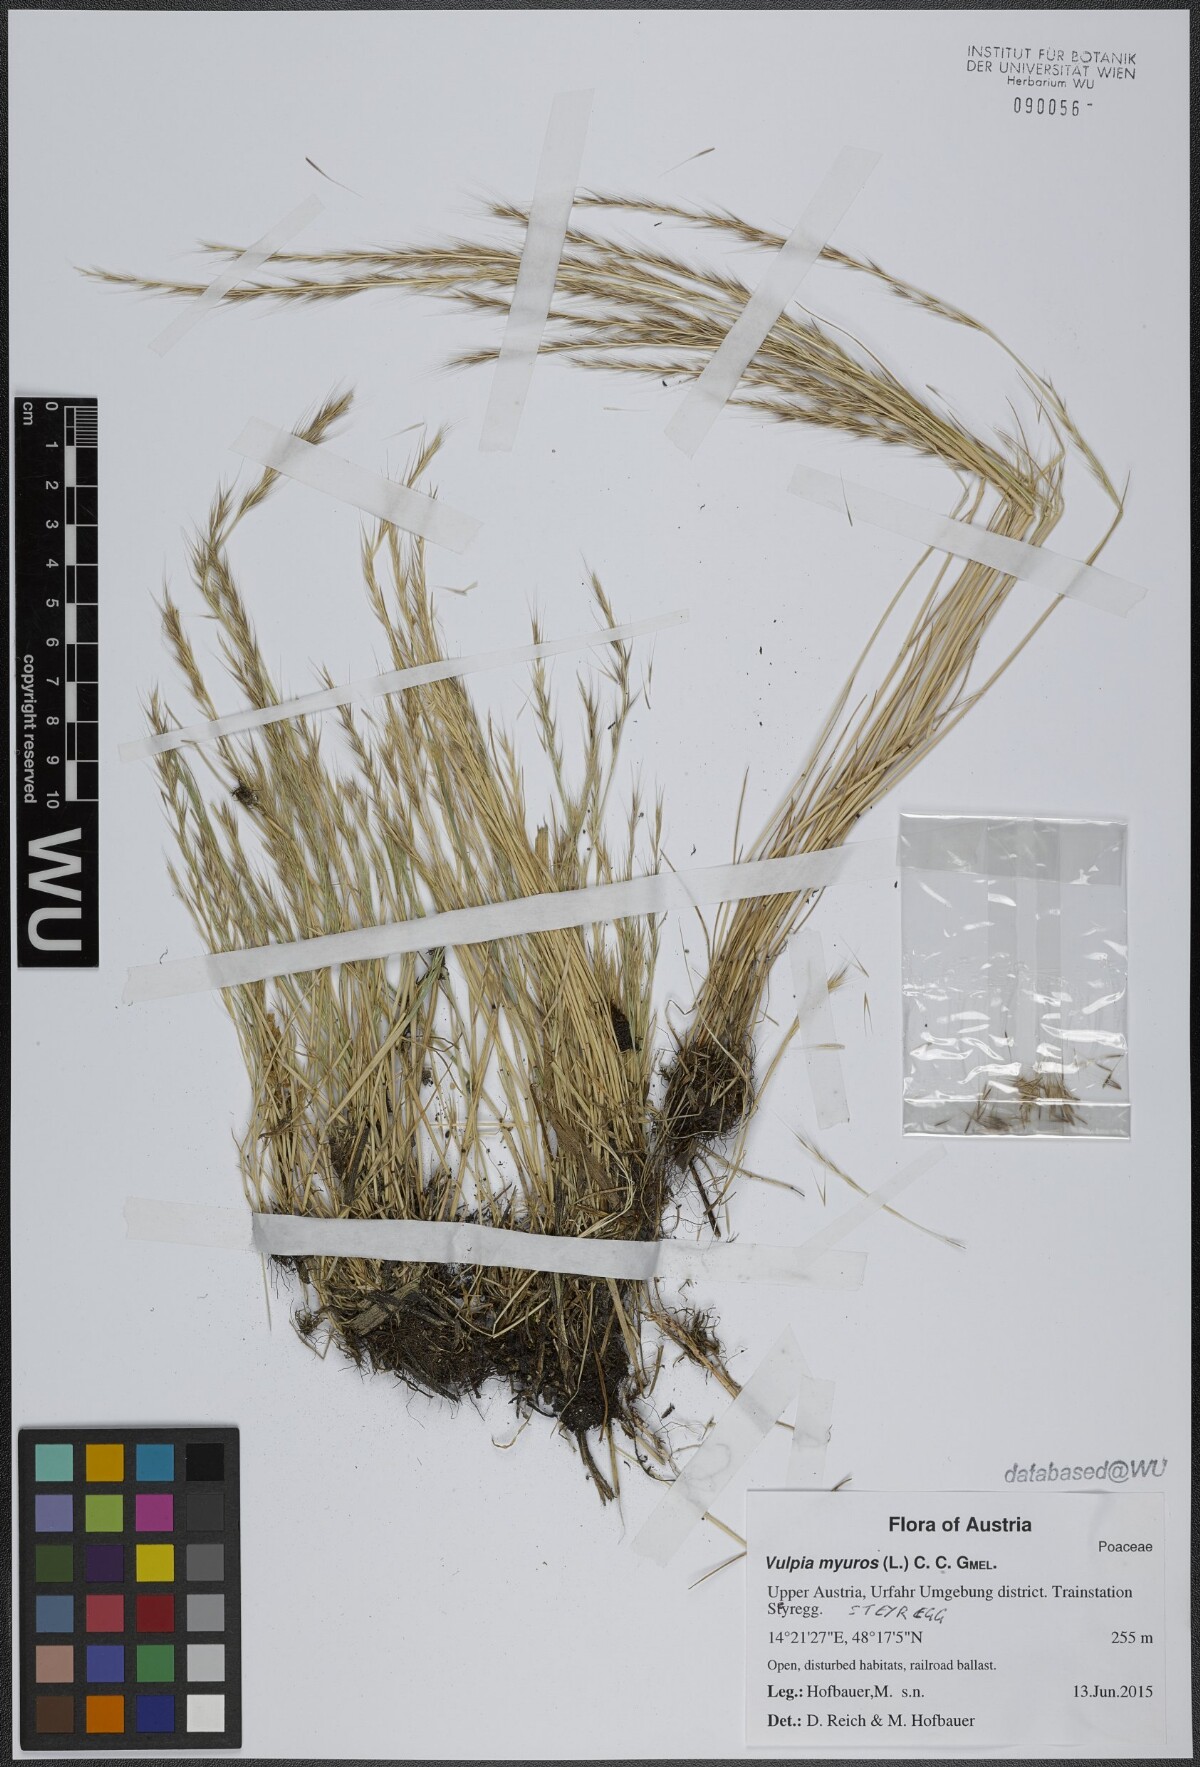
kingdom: Plantae
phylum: Tracheophyta
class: Liliopsida
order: Poales
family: Poaceae
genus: Festuca
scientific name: Festuca myuros
